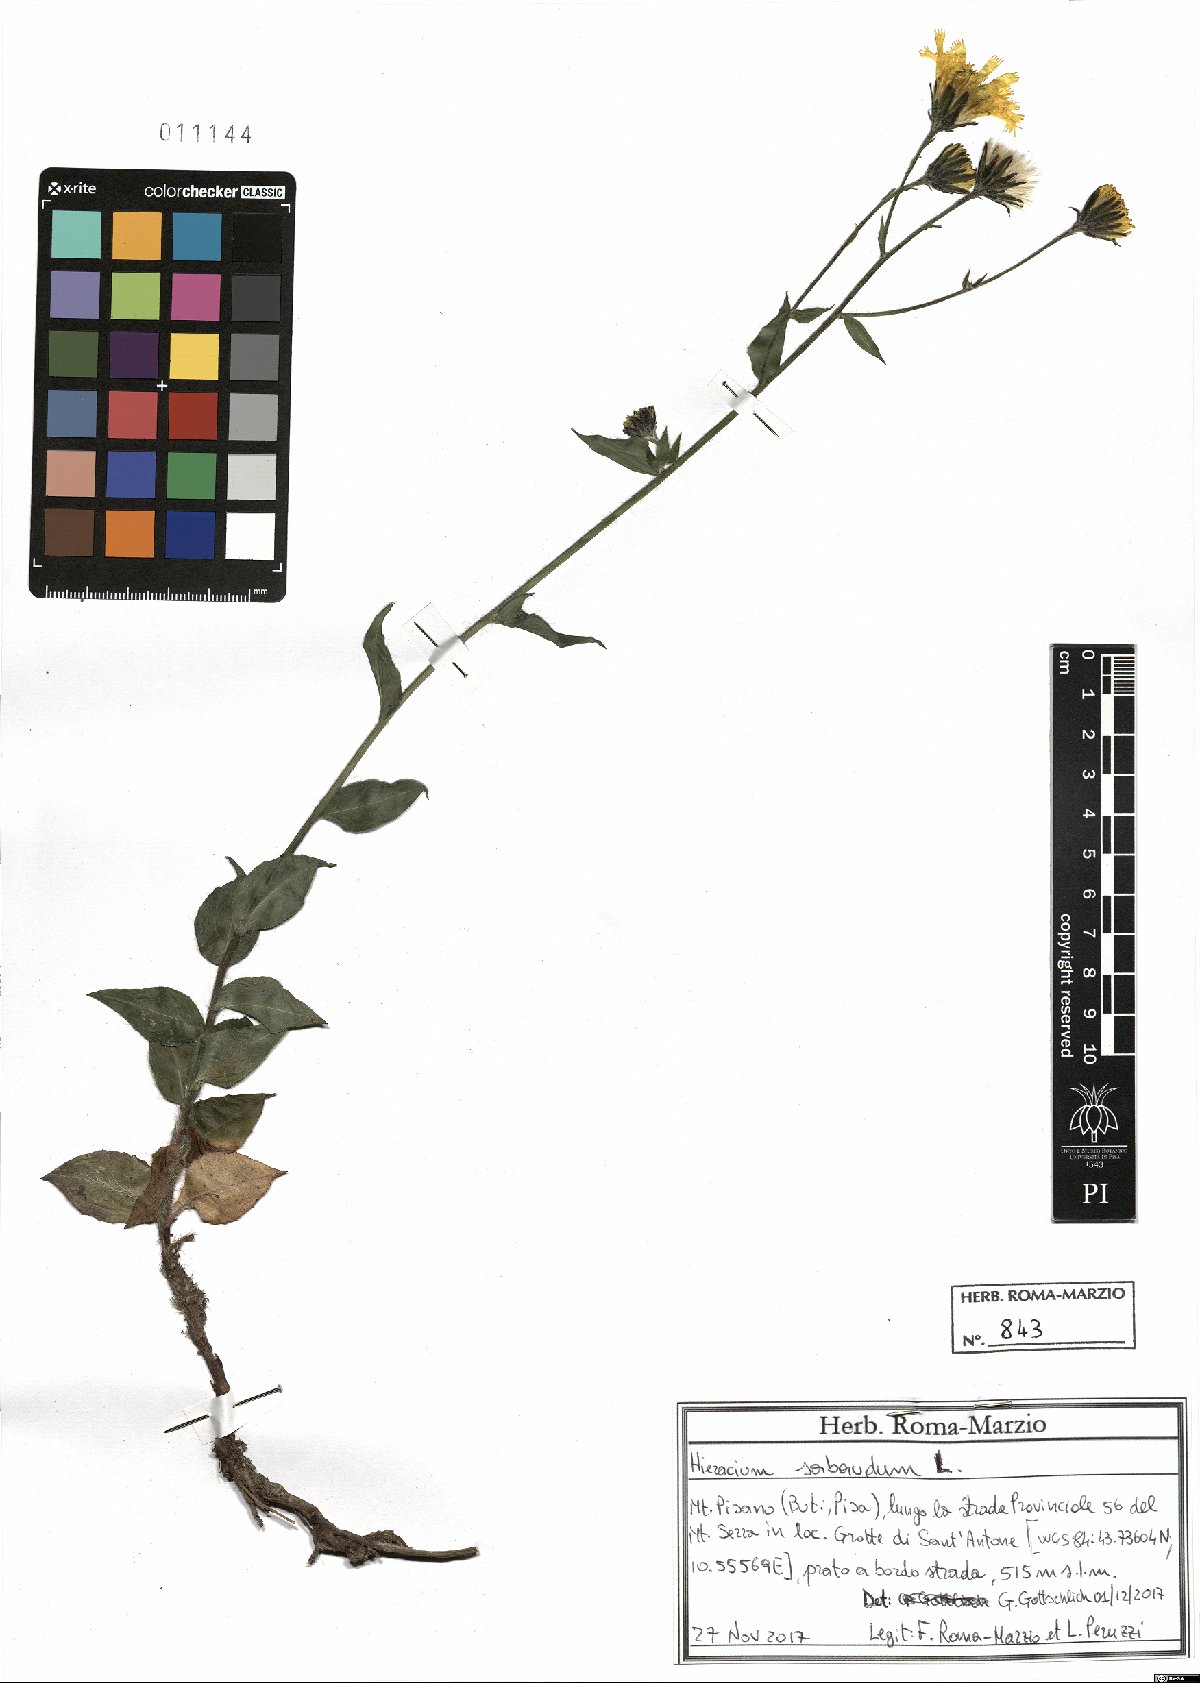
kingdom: Plantae
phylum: Tracheophyta
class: Magnoliopsida
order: Asterales
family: Asteraceae
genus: Hieracium
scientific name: Hieracium sabaudum
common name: New england hawkweed
